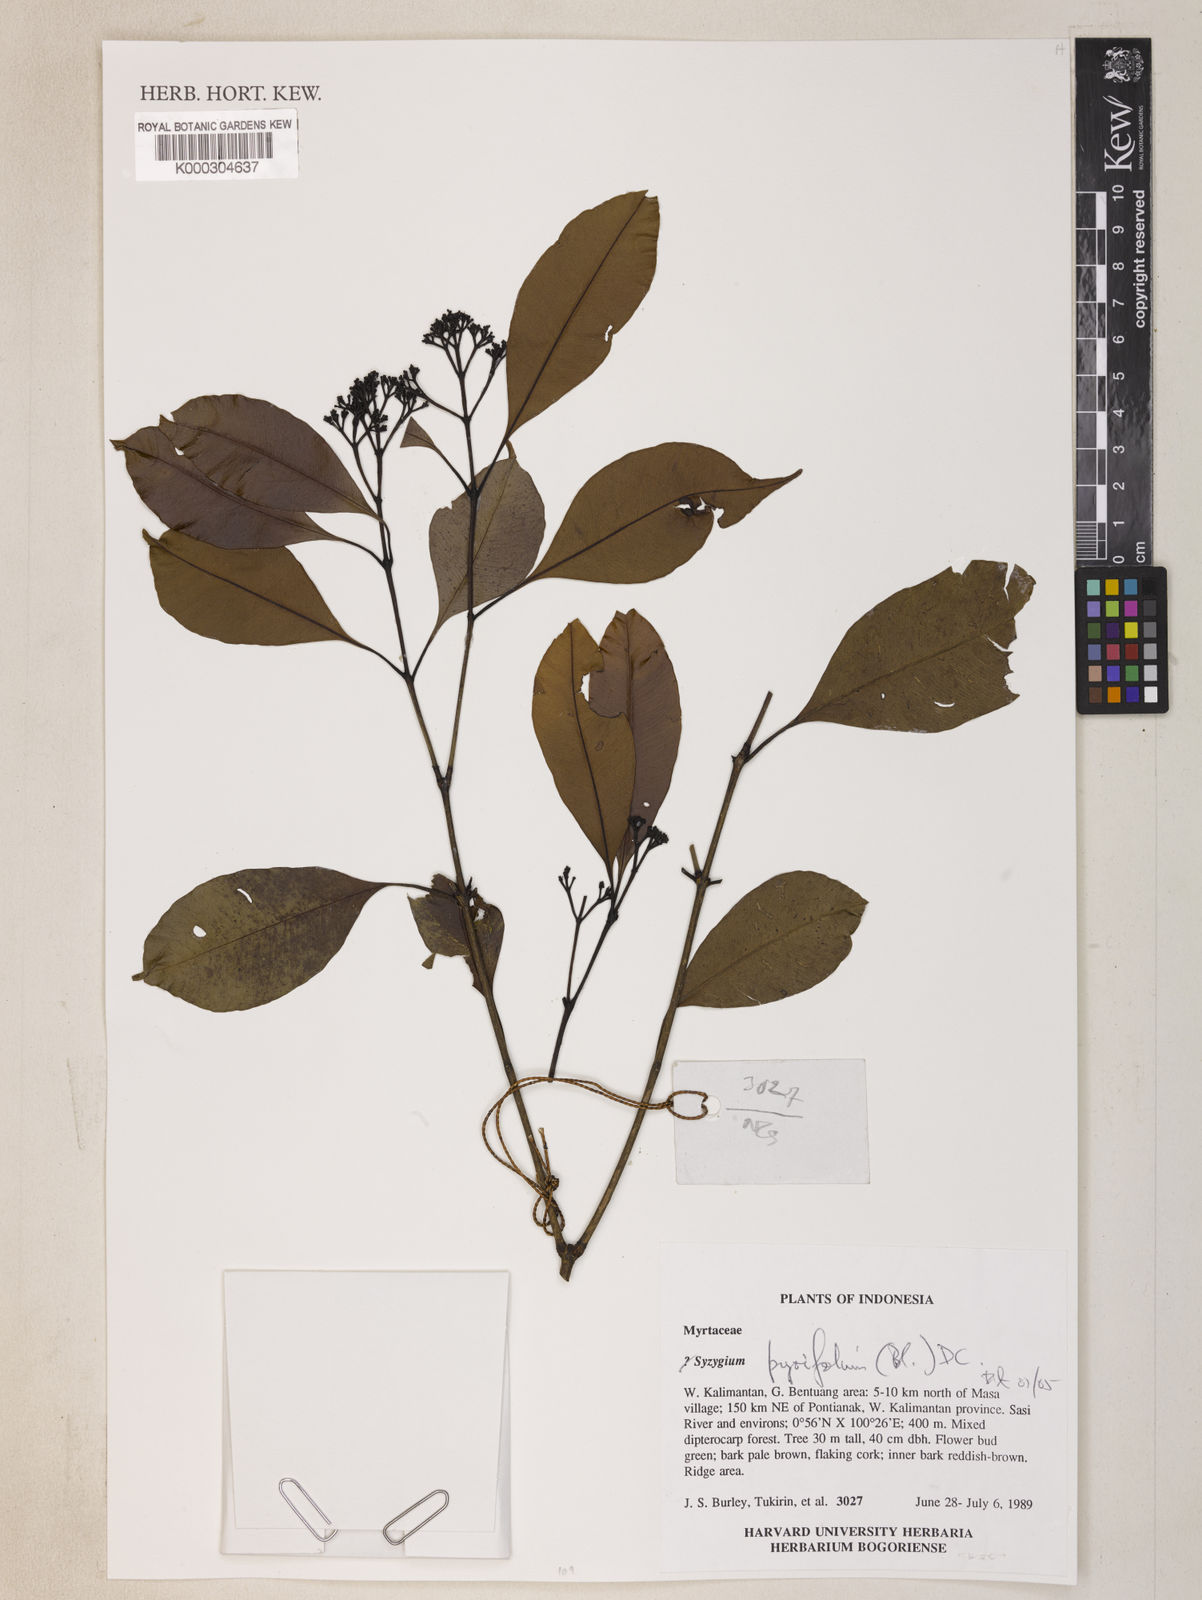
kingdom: Plantae
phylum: Tracheophyta
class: Magnoliopsida
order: Myrtales
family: Myrtaceae
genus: Syzygium
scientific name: Syzygium pyrifolium
